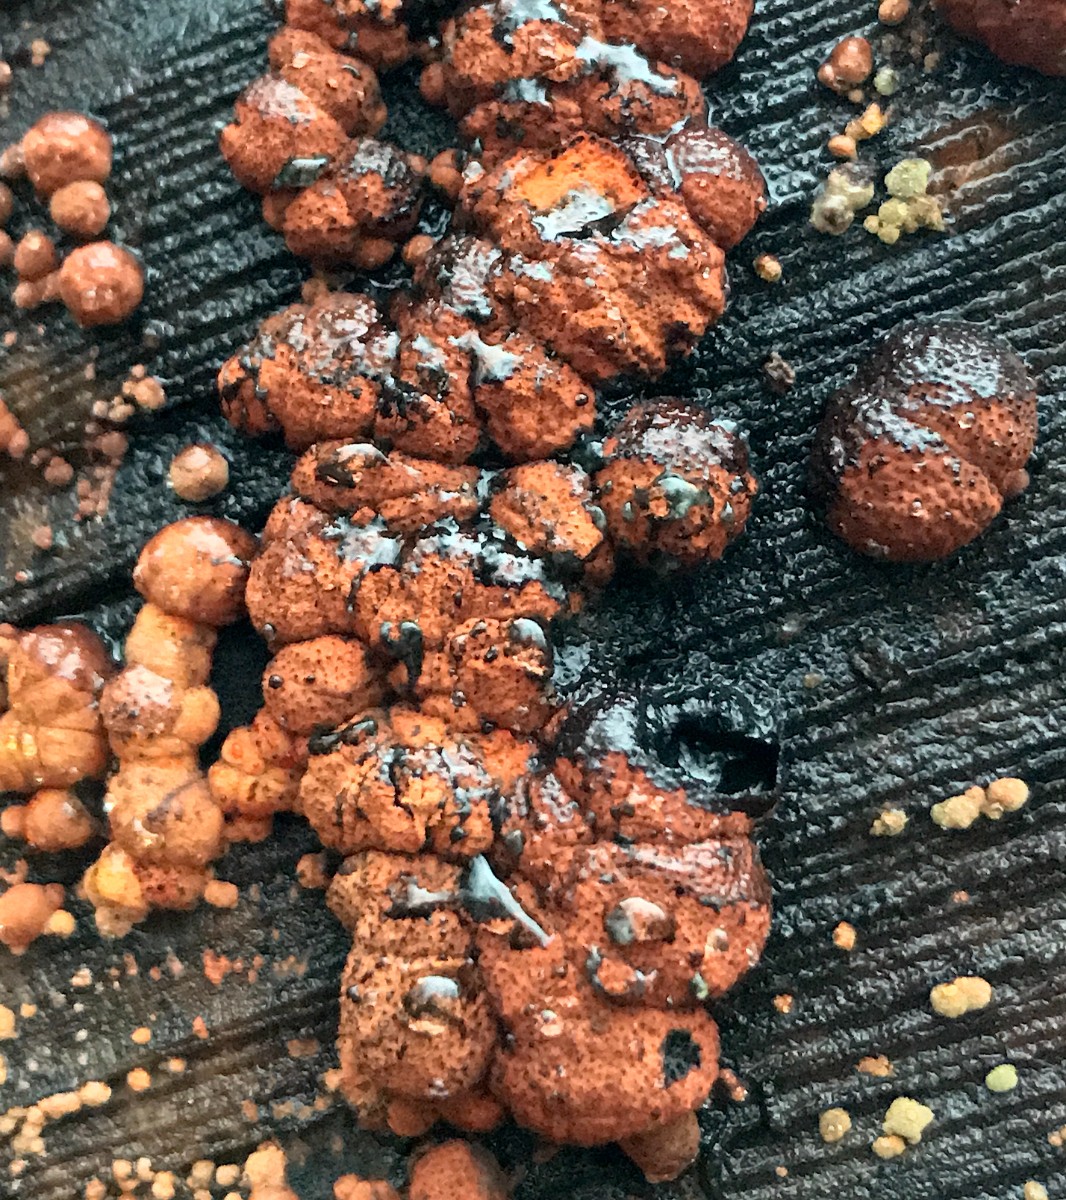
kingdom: Fungi
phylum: Ascomycota
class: Sordariomycetes
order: Xylariales
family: Hypoxylaceae
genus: Hypoxylon
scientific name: Hypoxylon fragiforme
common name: kuljordbær
